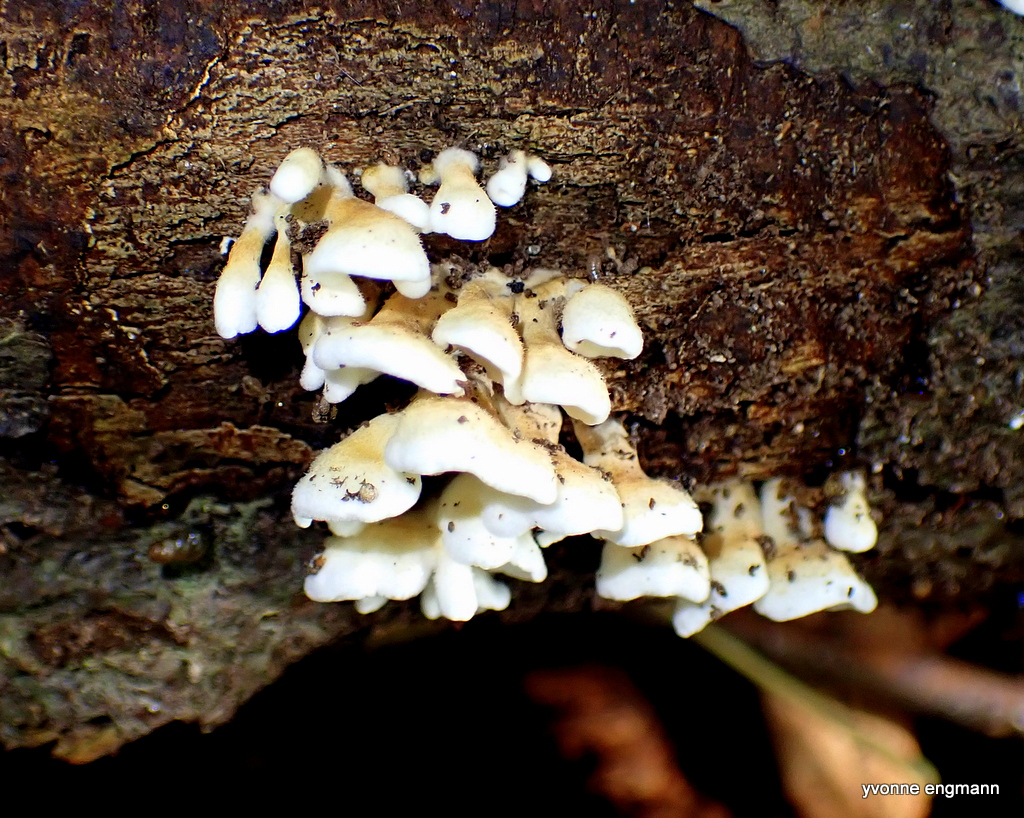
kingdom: Fungi
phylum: Basidiomycota
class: Agaricomycetes
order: Amylocorticiales
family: Amylocorticiaceae
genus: Plicaturopsis
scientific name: Plicaturopsis crispa
